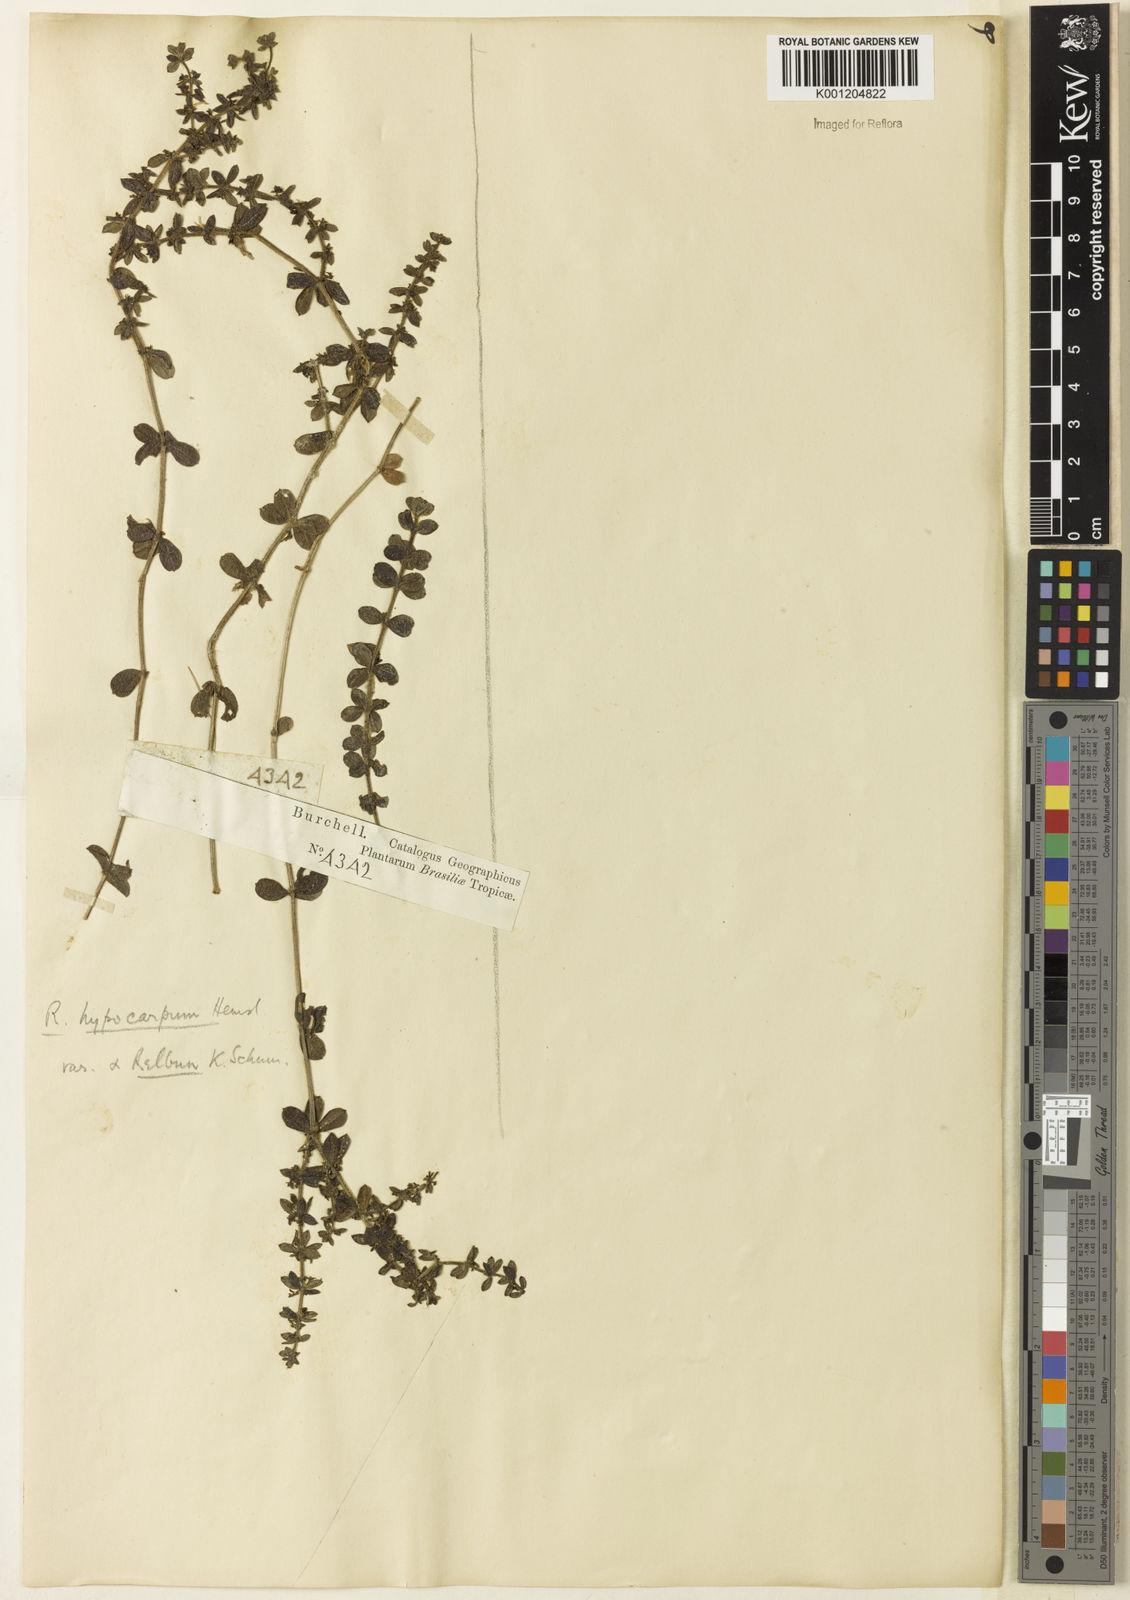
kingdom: Plantae
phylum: Tracheophyta
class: Magnoliopsida
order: Gentianales
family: Rubiaceae
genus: Galium
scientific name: Galium hypocarpium
